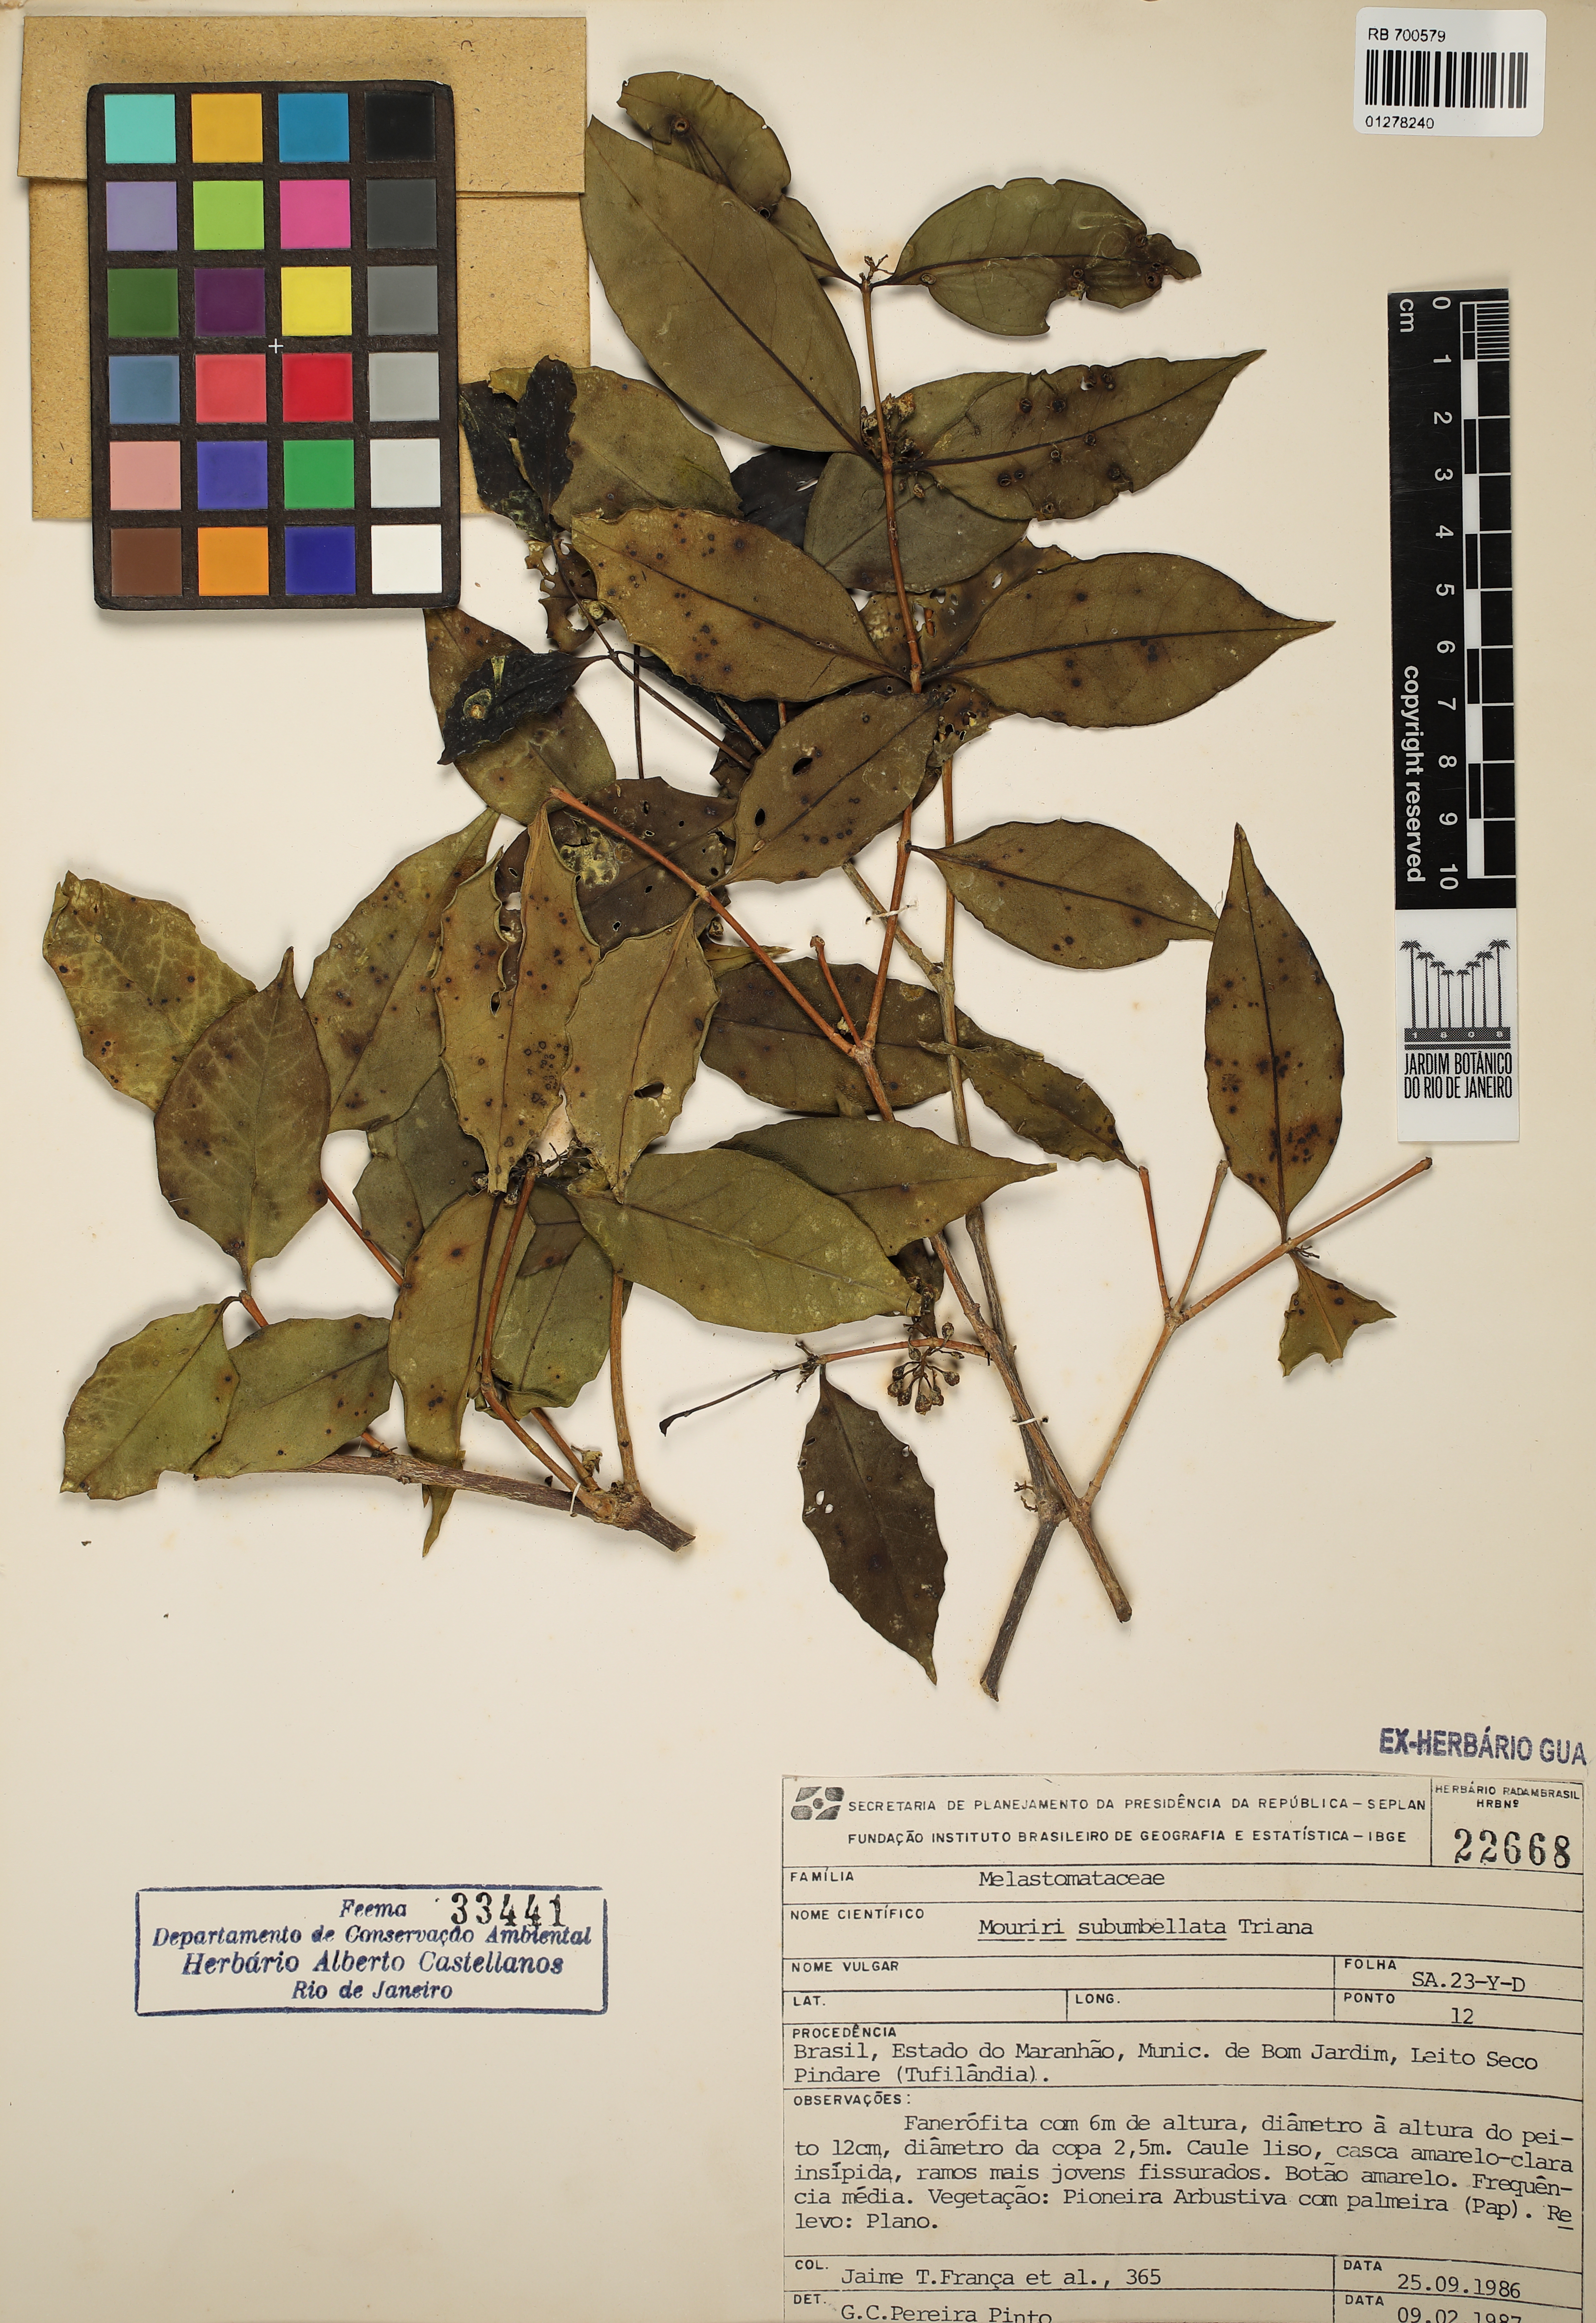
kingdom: Plantae
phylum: Tracheophyta
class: Magnoliopsida
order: Myrtales
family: Melastomataceae
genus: Mouriri
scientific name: Mouriri acutiflora
